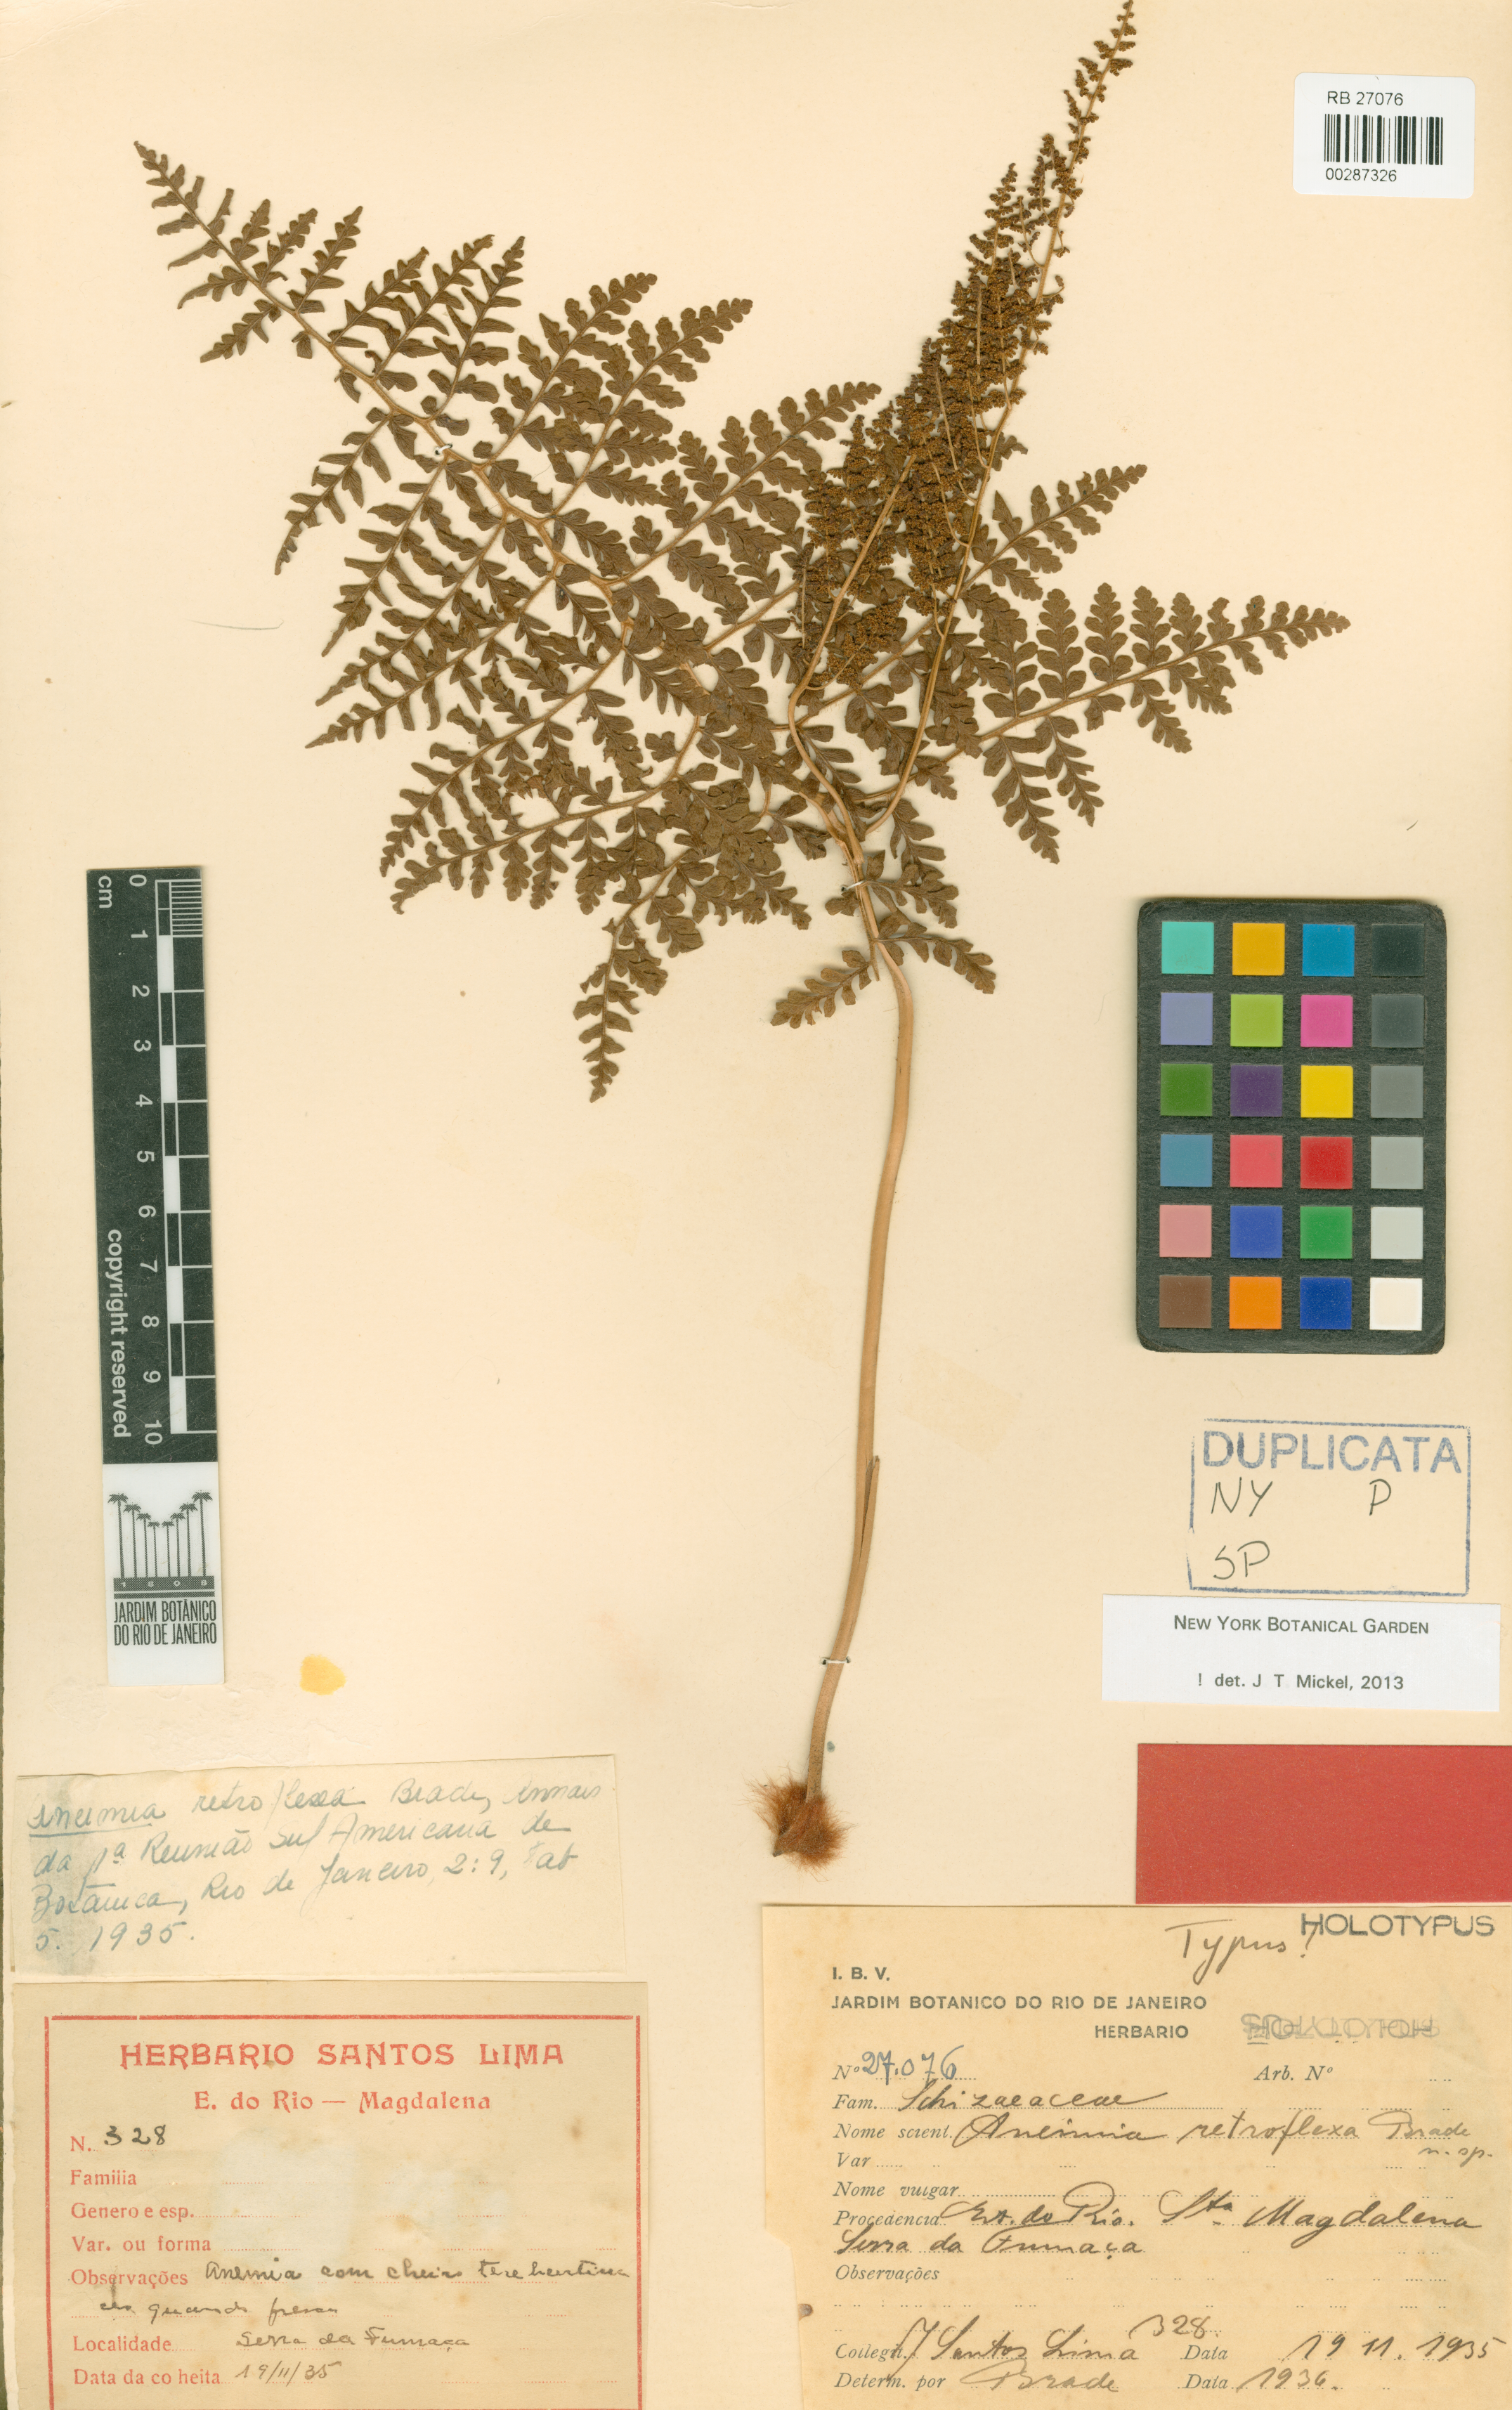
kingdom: Plantae
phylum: Tracheophyta
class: Polypodiopsida
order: Schizaeales
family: Anemiaceae
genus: Anemia
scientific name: Anemia retroflexa
